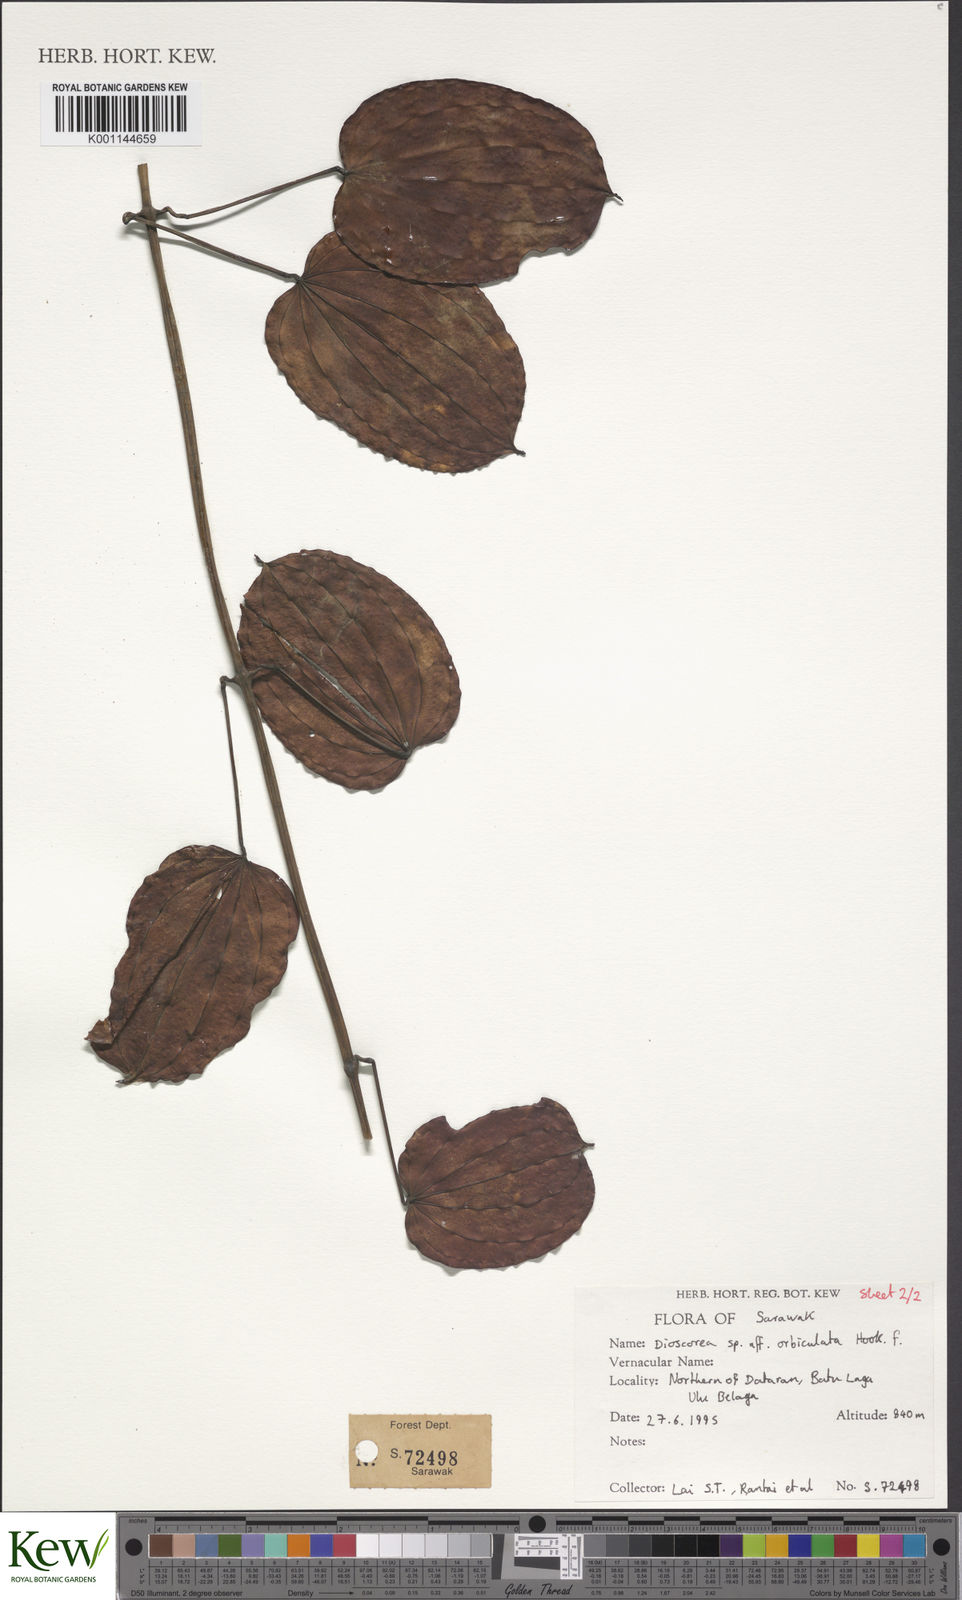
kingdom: Plantae
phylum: Tracheophyta
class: Liliopsida
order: Dioscoreales
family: Dioscoreaceae
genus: Dioscorea
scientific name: Dioscorea orbiculata
